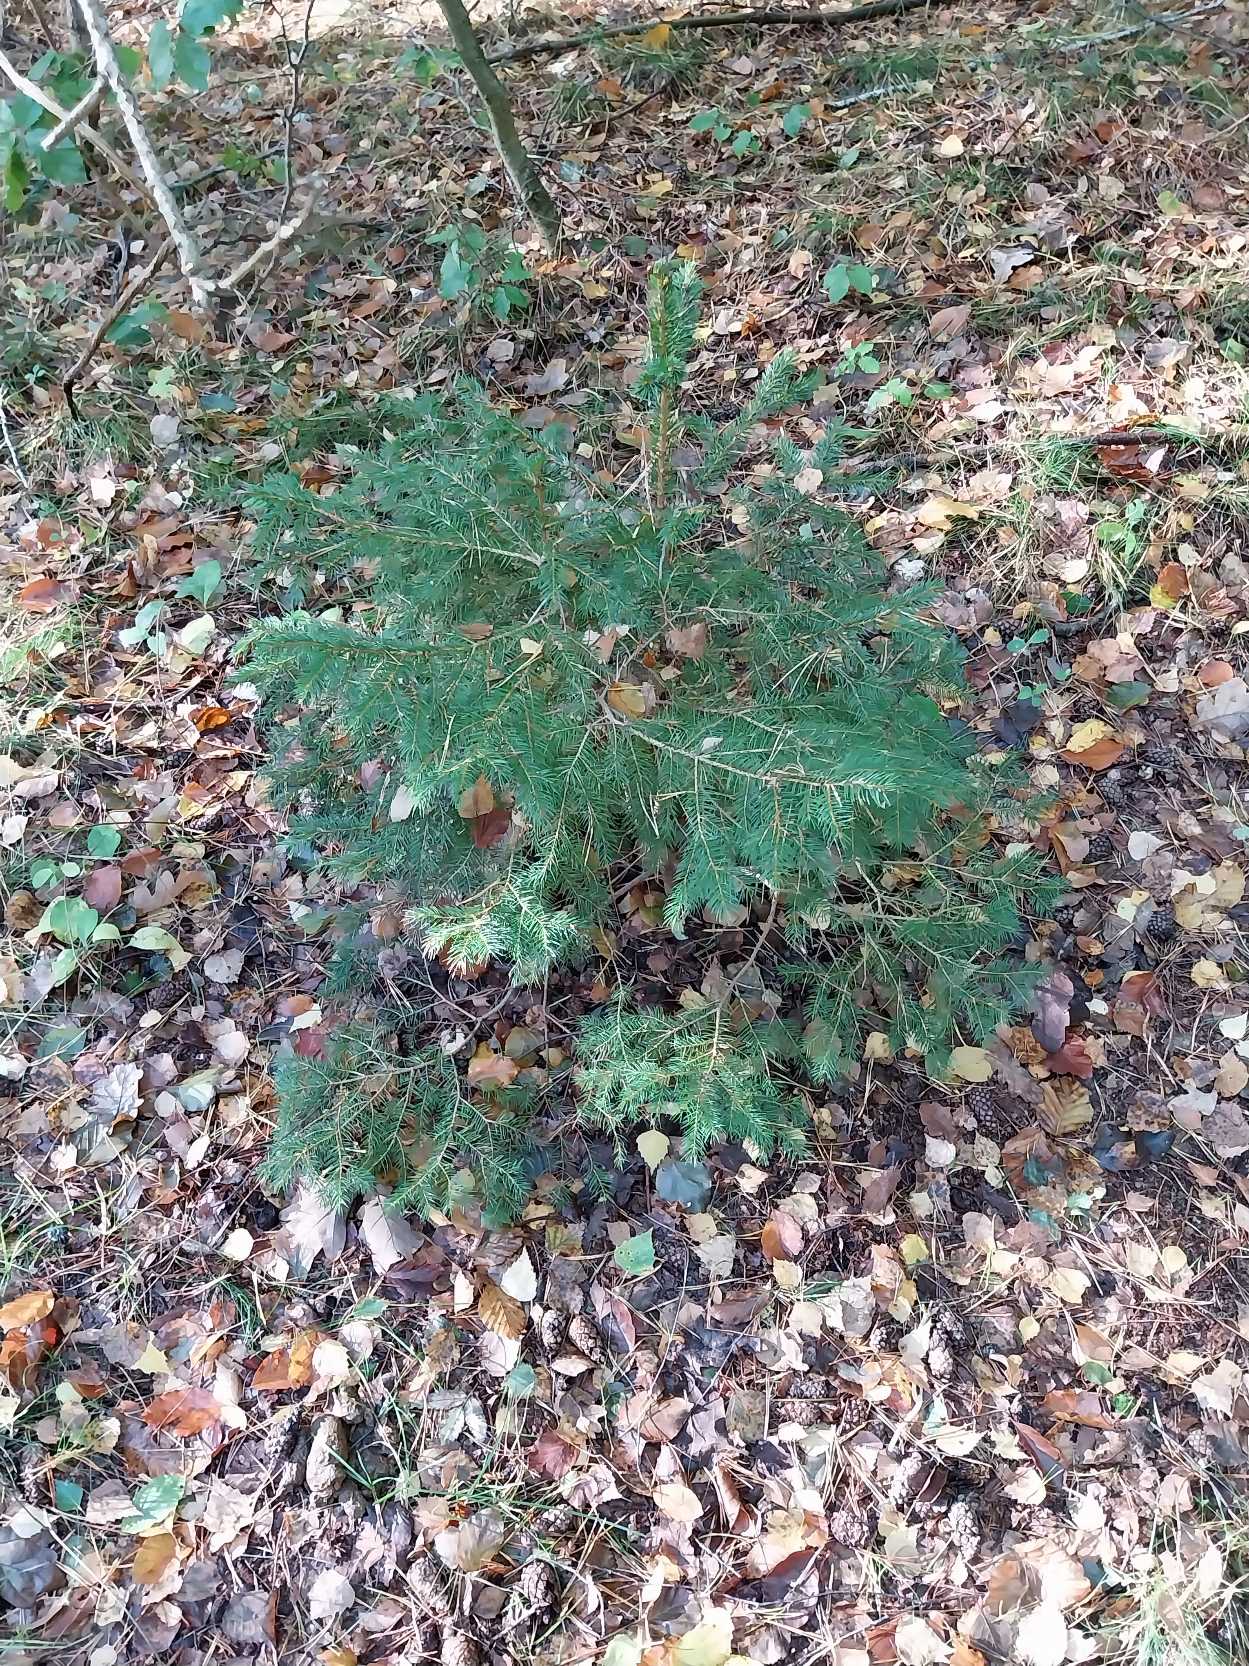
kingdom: Plantae
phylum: Tracheophyta
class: Pinopsida
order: Pinales
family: Pinaceae
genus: Picea
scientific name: Picea abies
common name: Rød-gran
